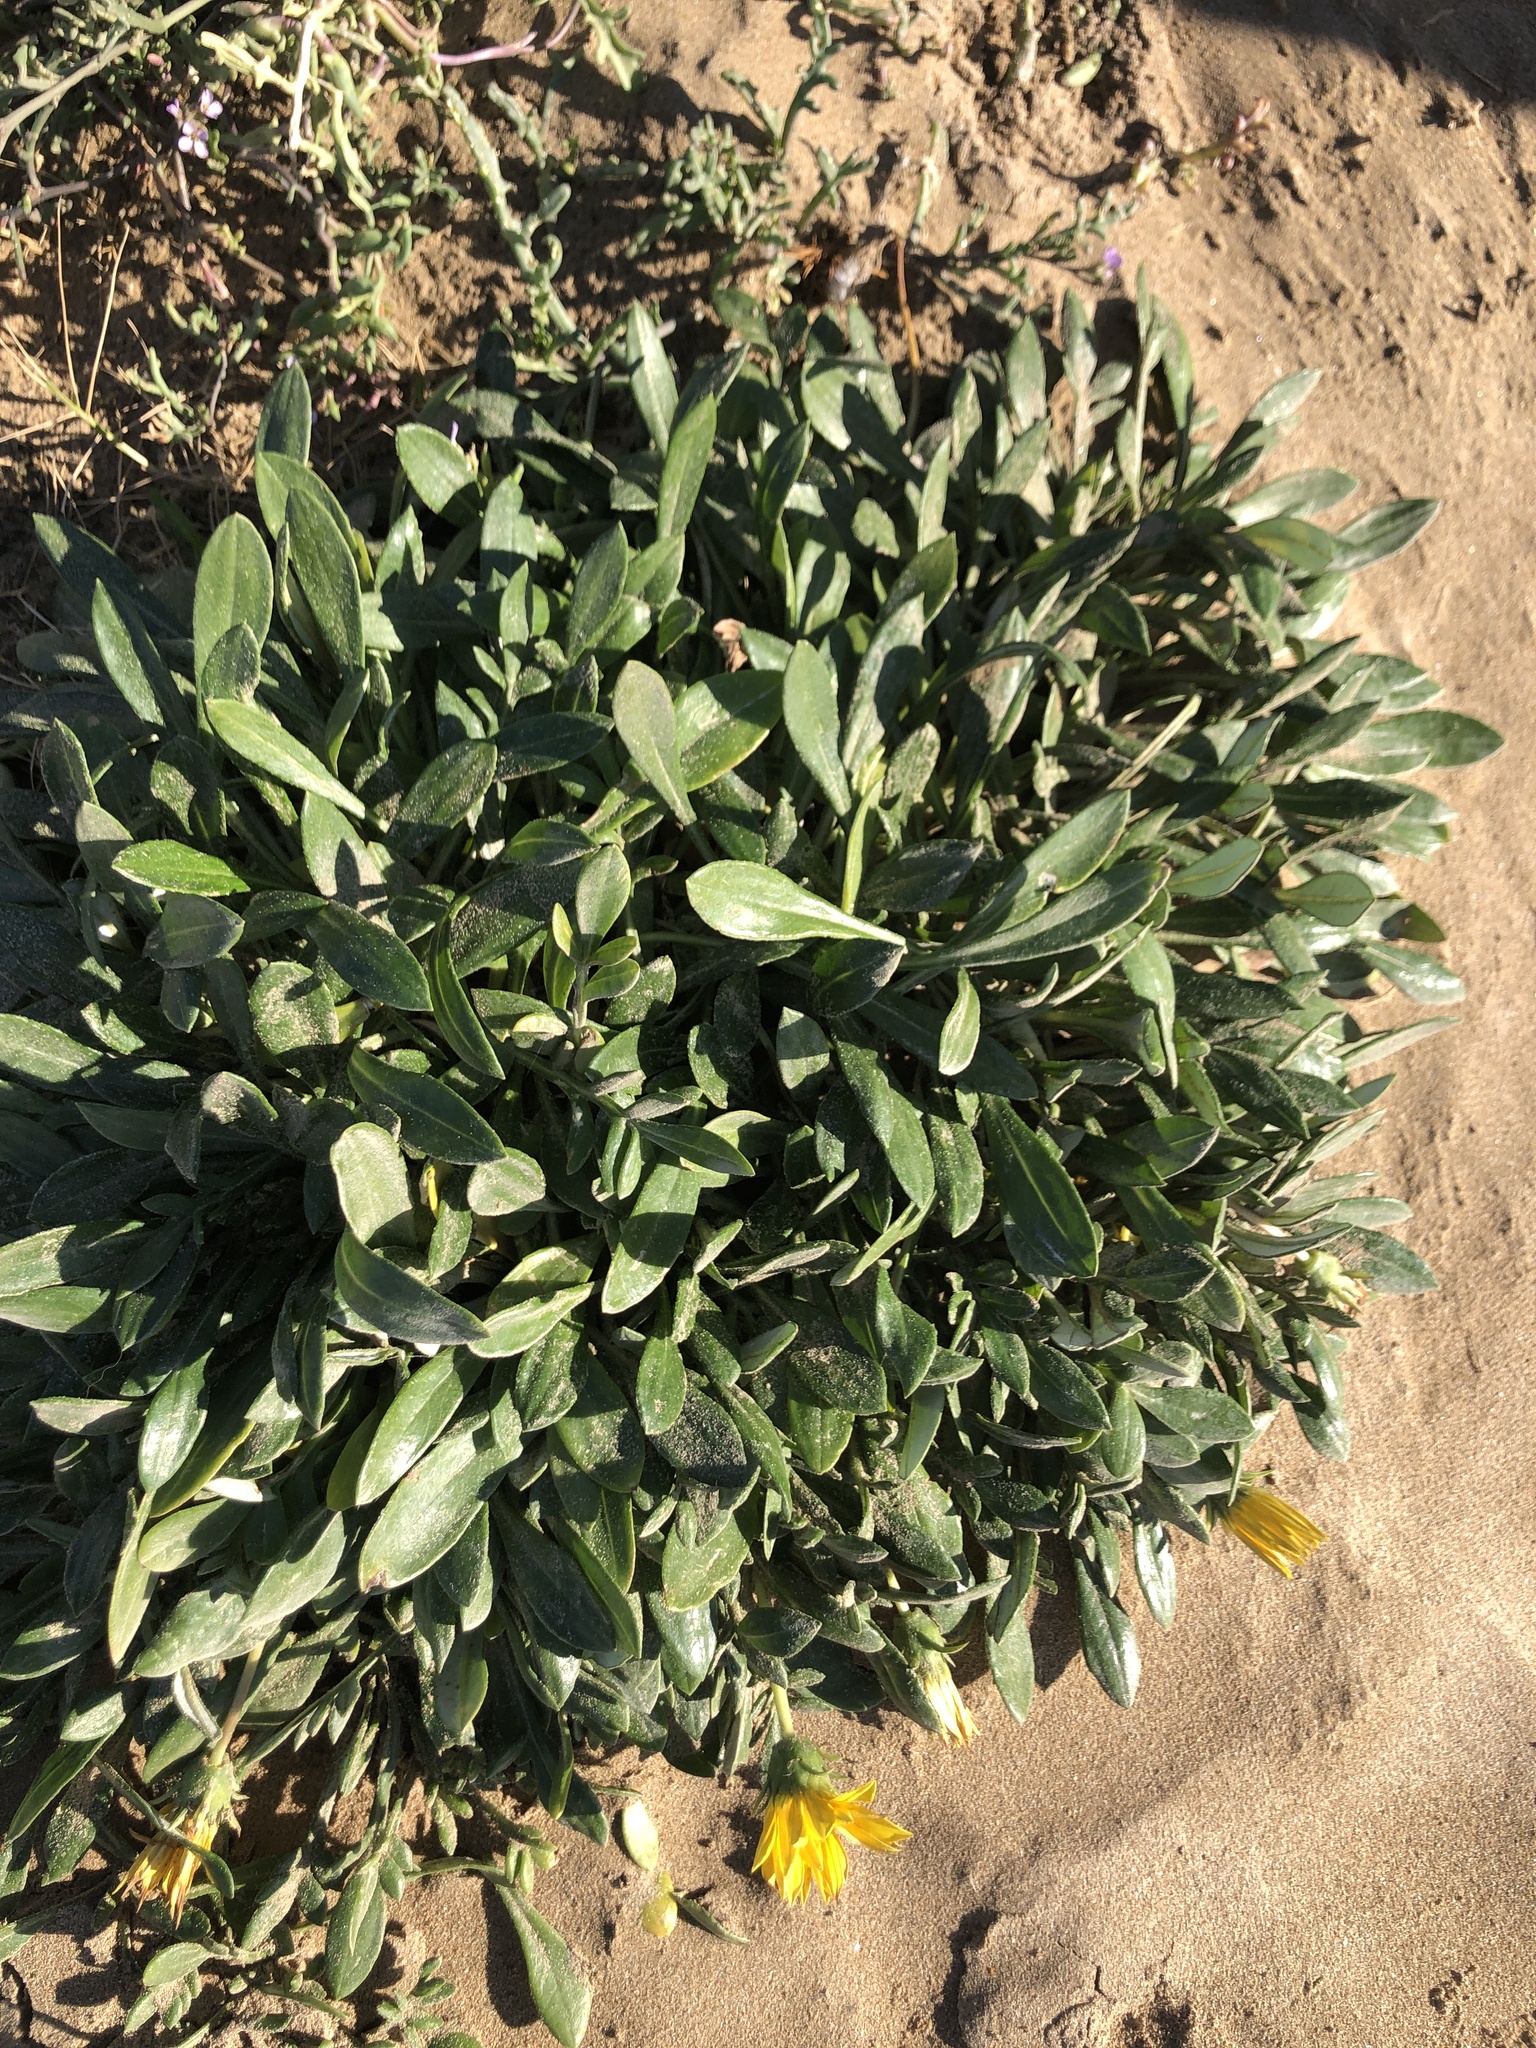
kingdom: Plantae
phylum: Tracheophyta
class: Magnoliopsida
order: Asterales
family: Asteraceae
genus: Gazania
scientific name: Gazania rigens
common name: Treasureflower
